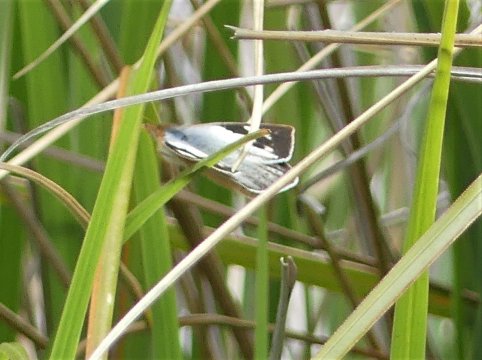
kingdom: Animalia
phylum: Arthropoda
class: Insecta
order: Lepidoptera
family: Pieridae
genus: Leptophobia
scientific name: Leptophobia penthica
